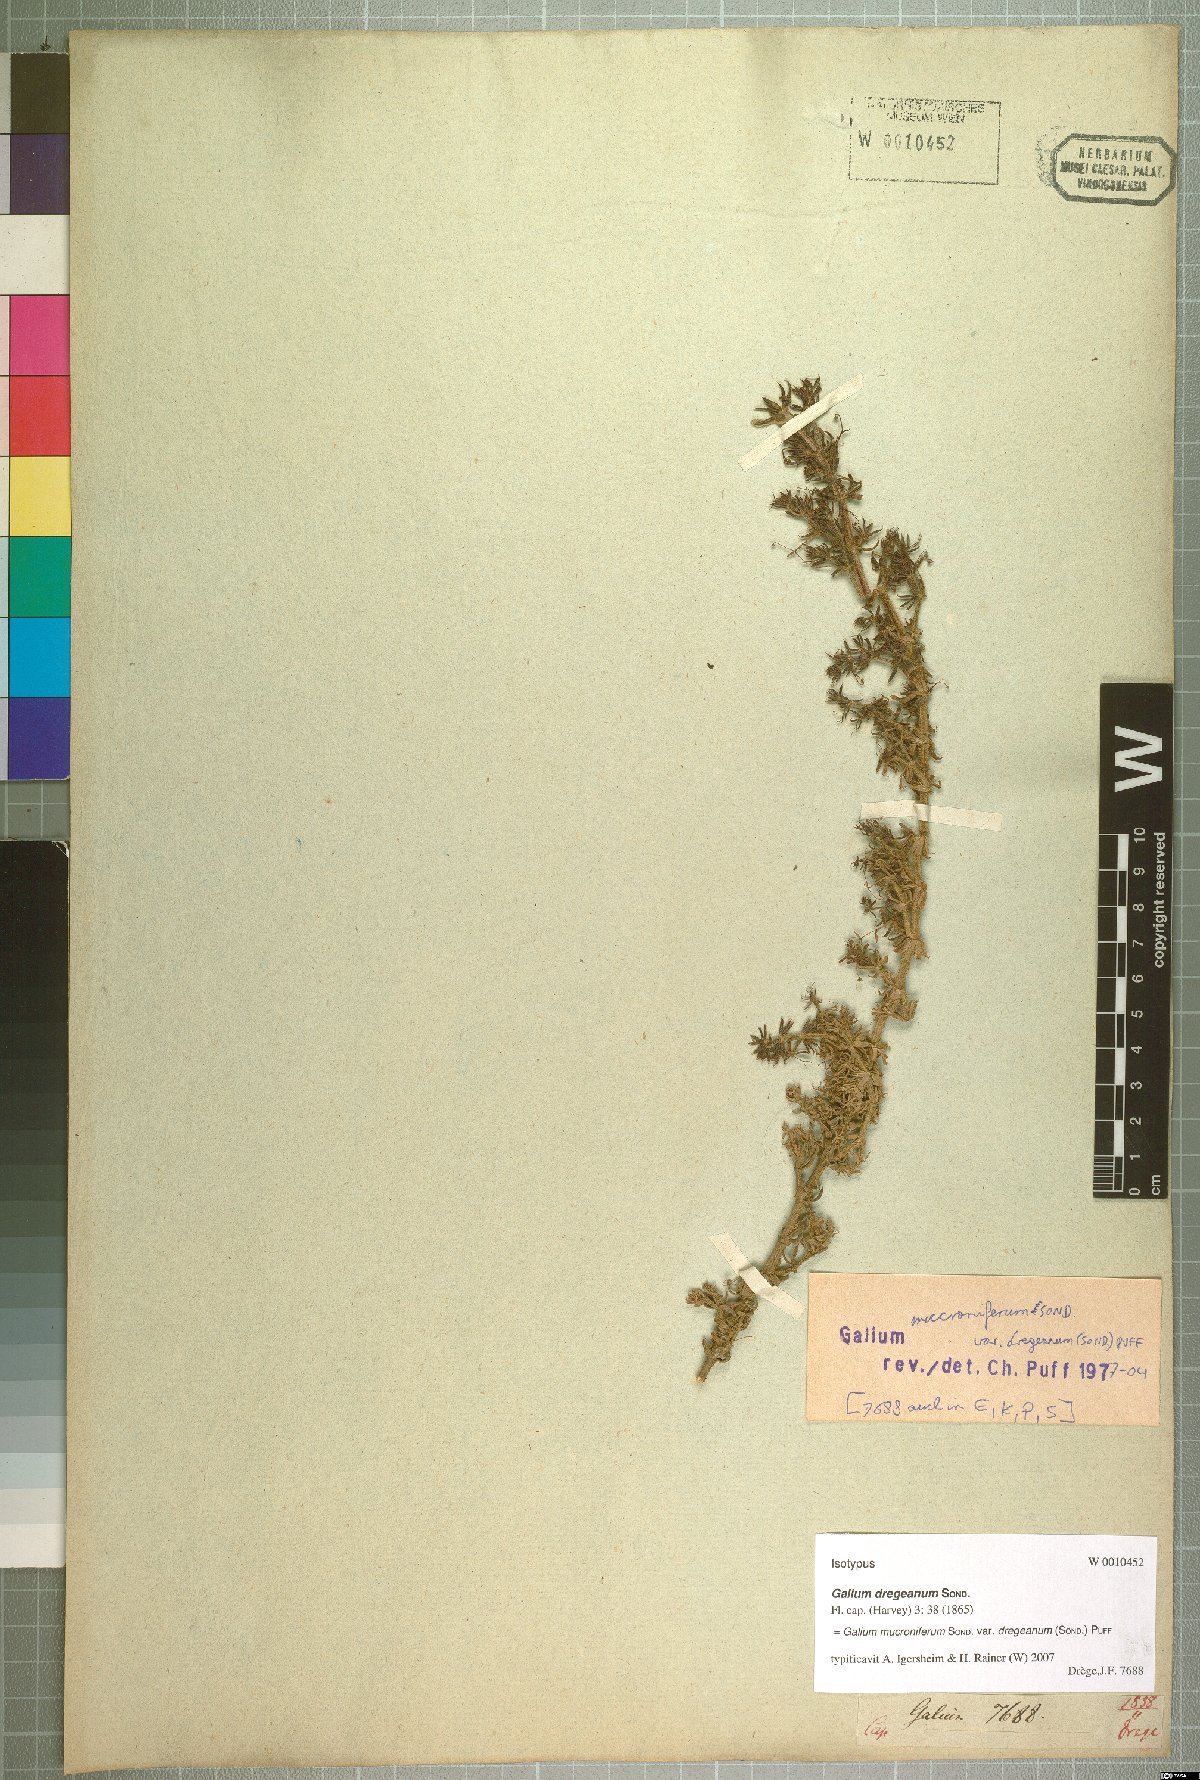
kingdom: Plantae
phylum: Tracheophyta
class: Magnoliopsida
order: Gentianales
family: Rubiaceae
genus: Galium
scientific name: Galium mucroniferum
